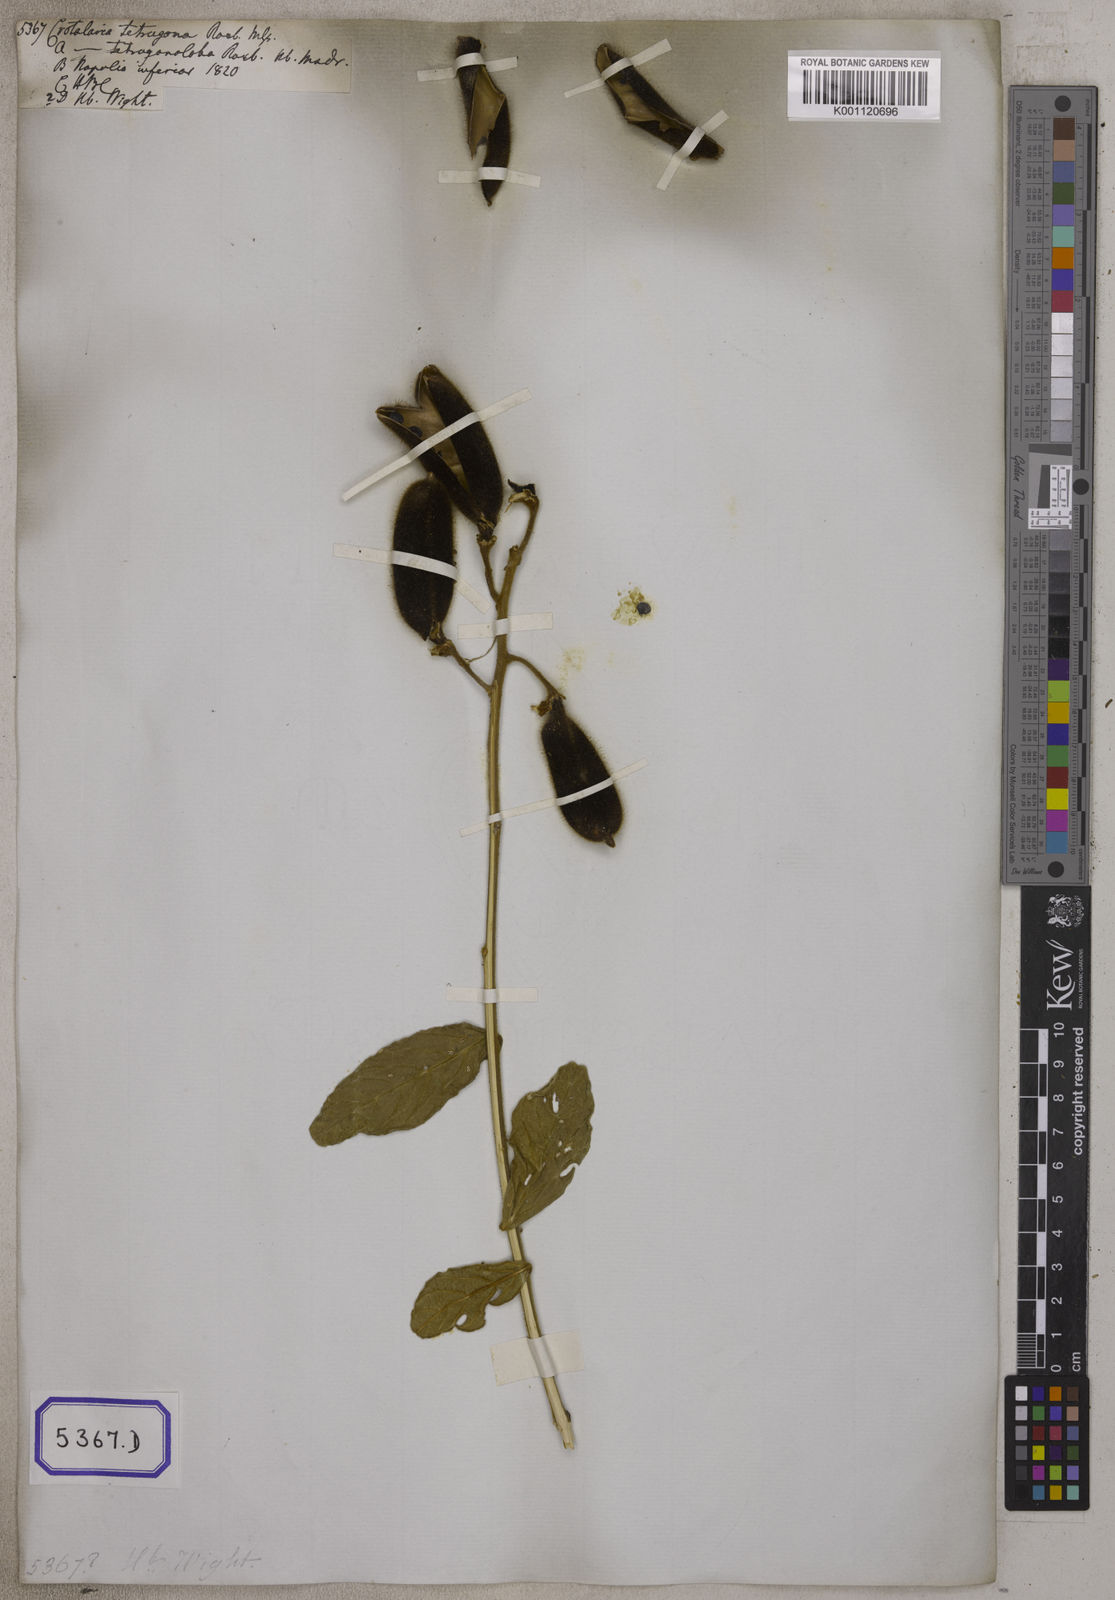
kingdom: Plantae
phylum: Tracheophyta
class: Magnoliopsida
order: Fabales
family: Fabaceae
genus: Crotalaria
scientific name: Crotalaria
